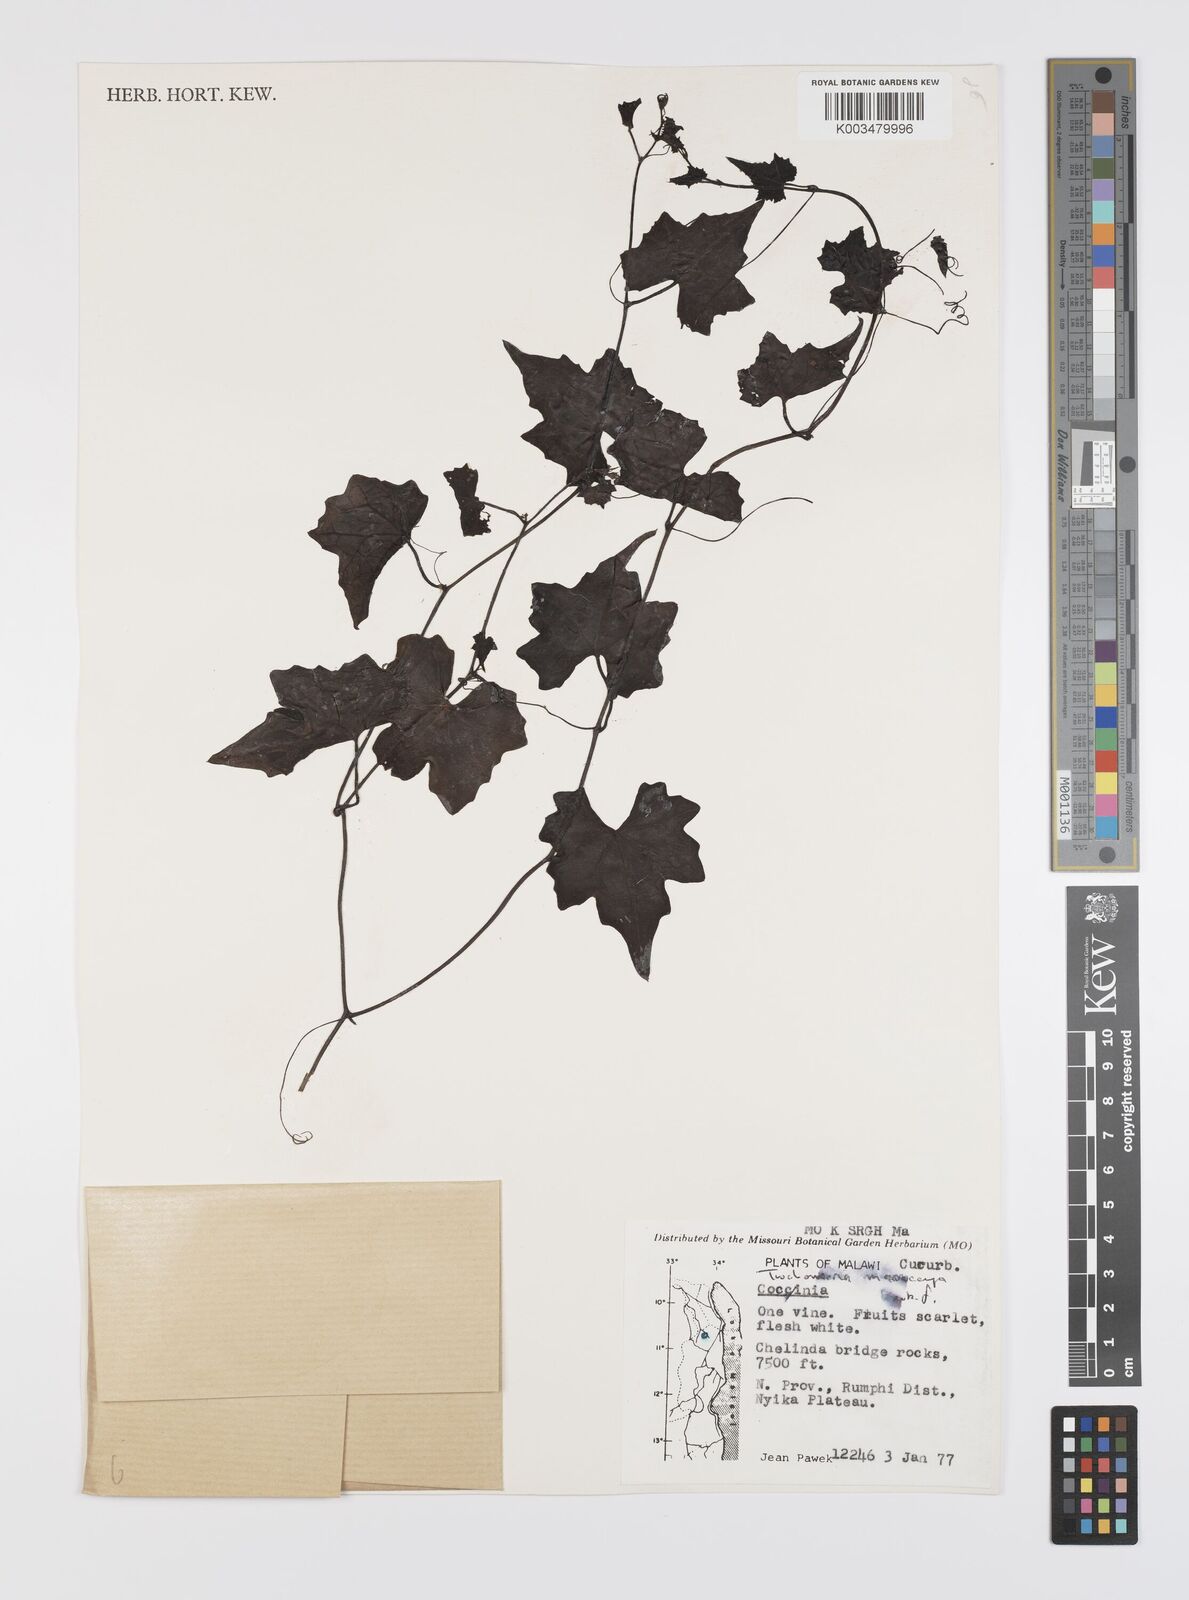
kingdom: Plantae
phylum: Tracheophyta
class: Magnoliopsida
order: Cucurbitales
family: Cucurbitaceae
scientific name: Cucurbitaceae
